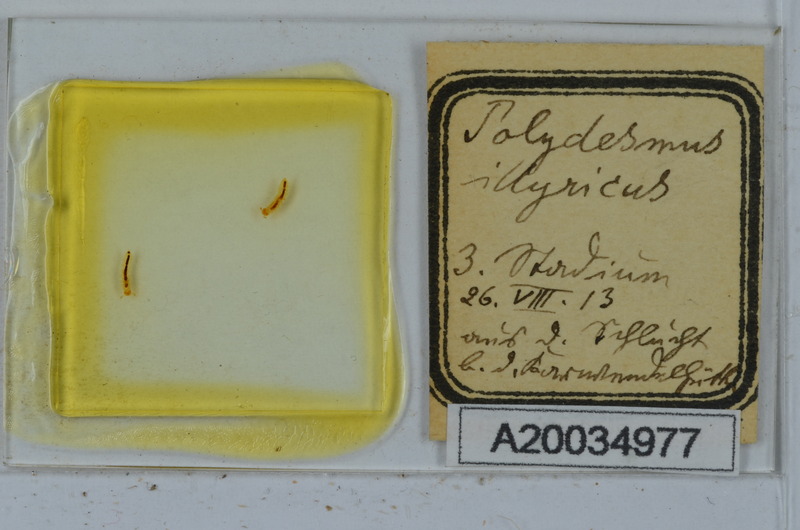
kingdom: Animalia
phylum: Arthropoda
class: Diplopoda
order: Polydesmida
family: Polydesmidae
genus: Polydesmus
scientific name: Polydesmus complanatus
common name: Flat-backed millipede
